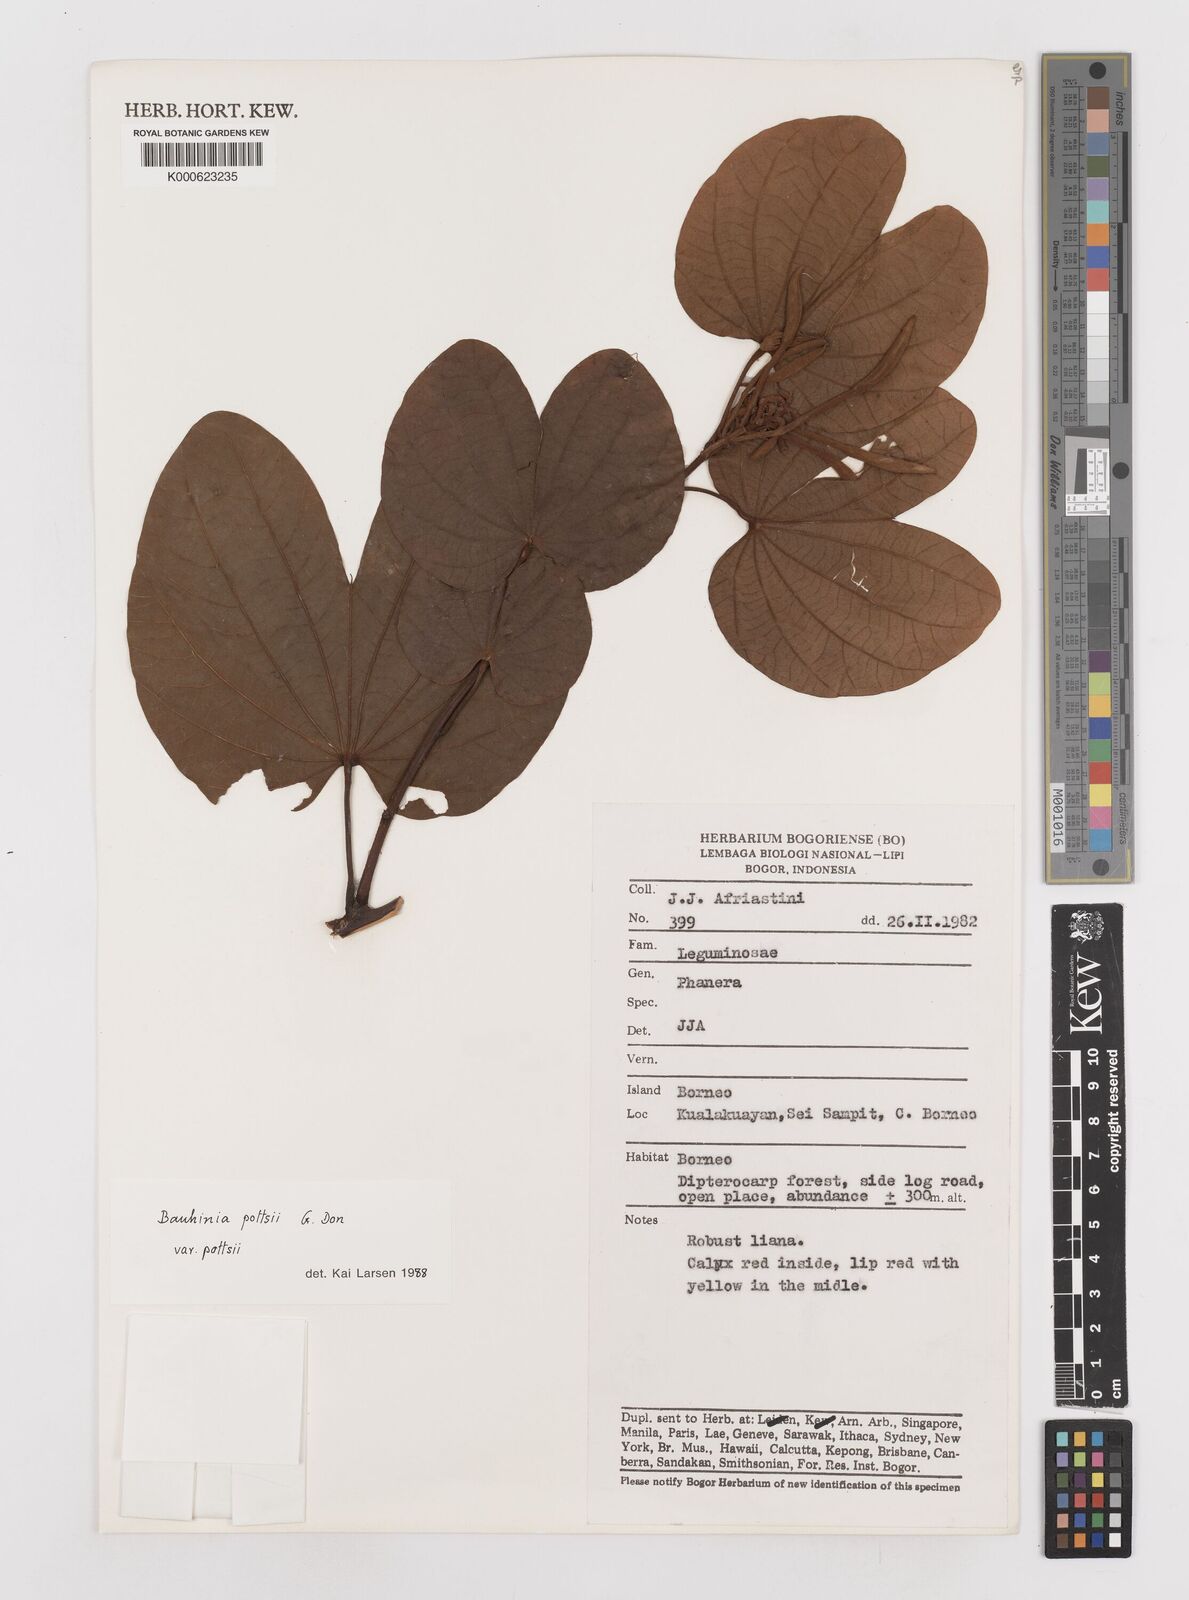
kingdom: Plantae
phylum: Tracheophyta
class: Magnoliopsida
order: Fabales
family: Fabaceae
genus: Bauhinia
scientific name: Bauhinia
